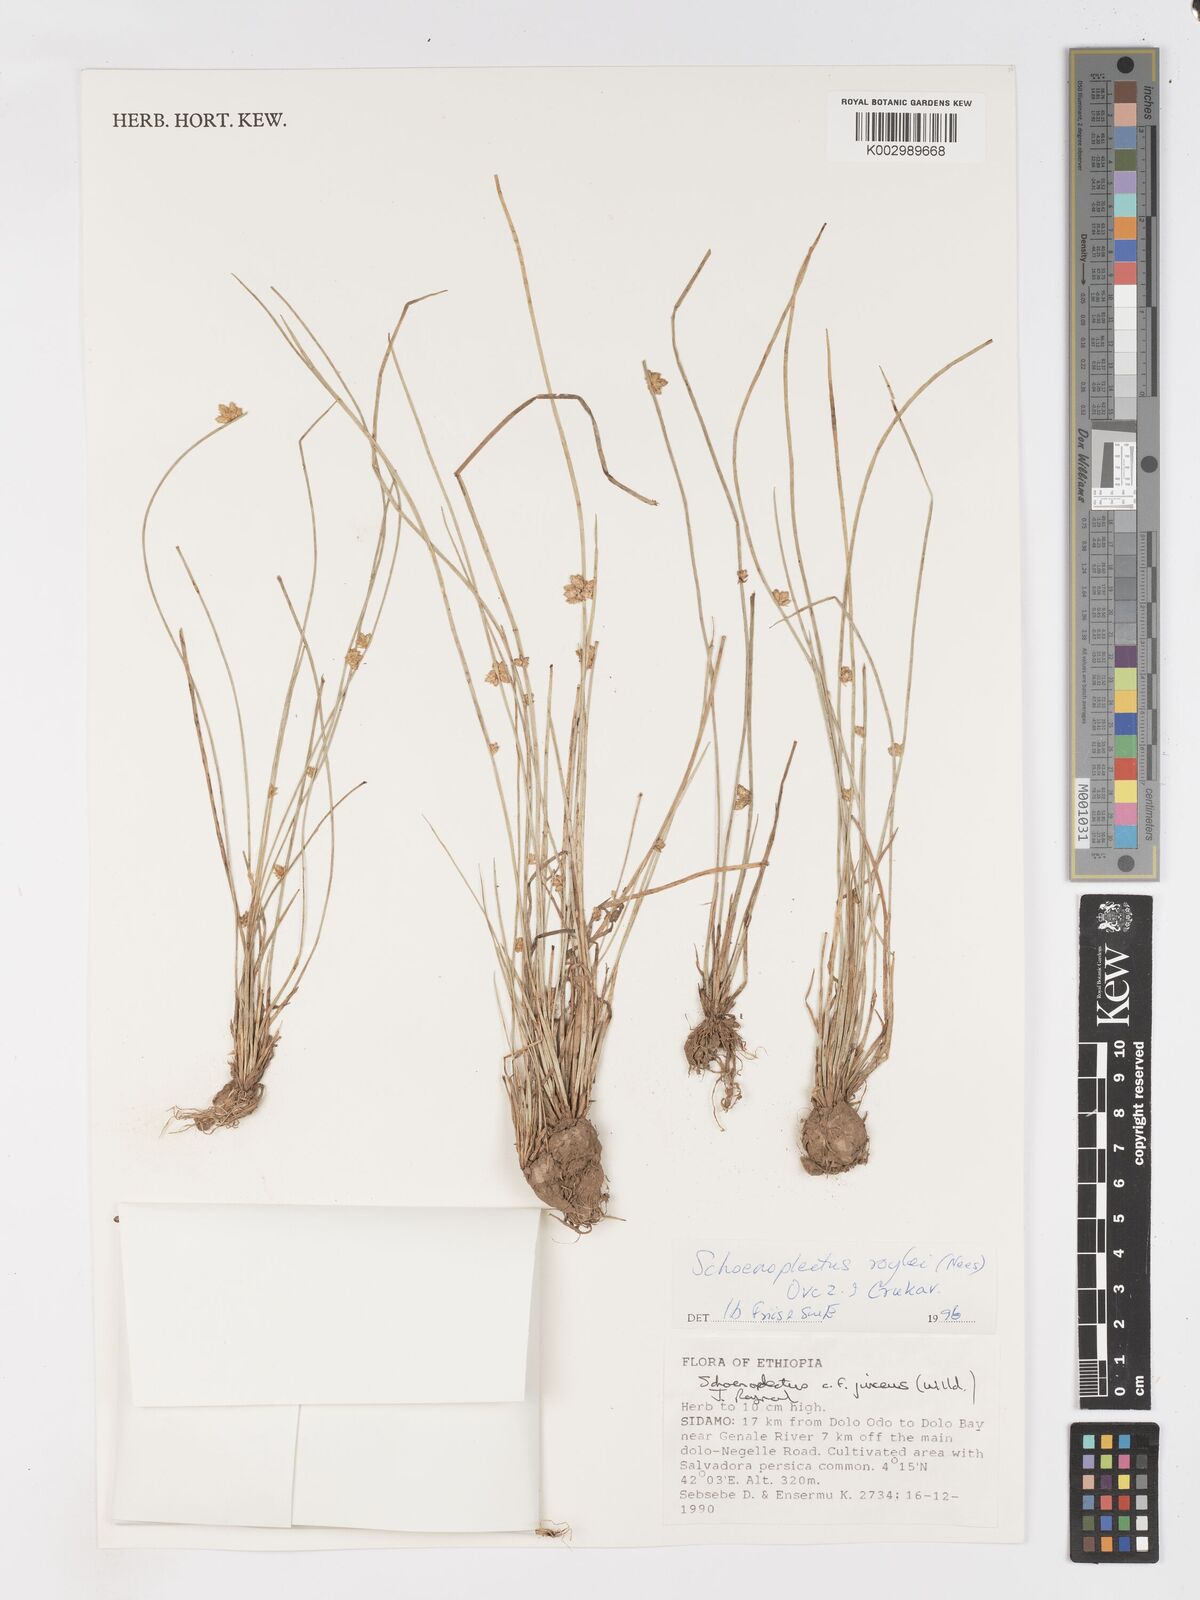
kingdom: Plantae
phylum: Tracheophyta
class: Liliopsida
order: Poales
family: Cyperaceae
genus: Schoenoplectiella
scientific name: Schoenoplectiella roylei
